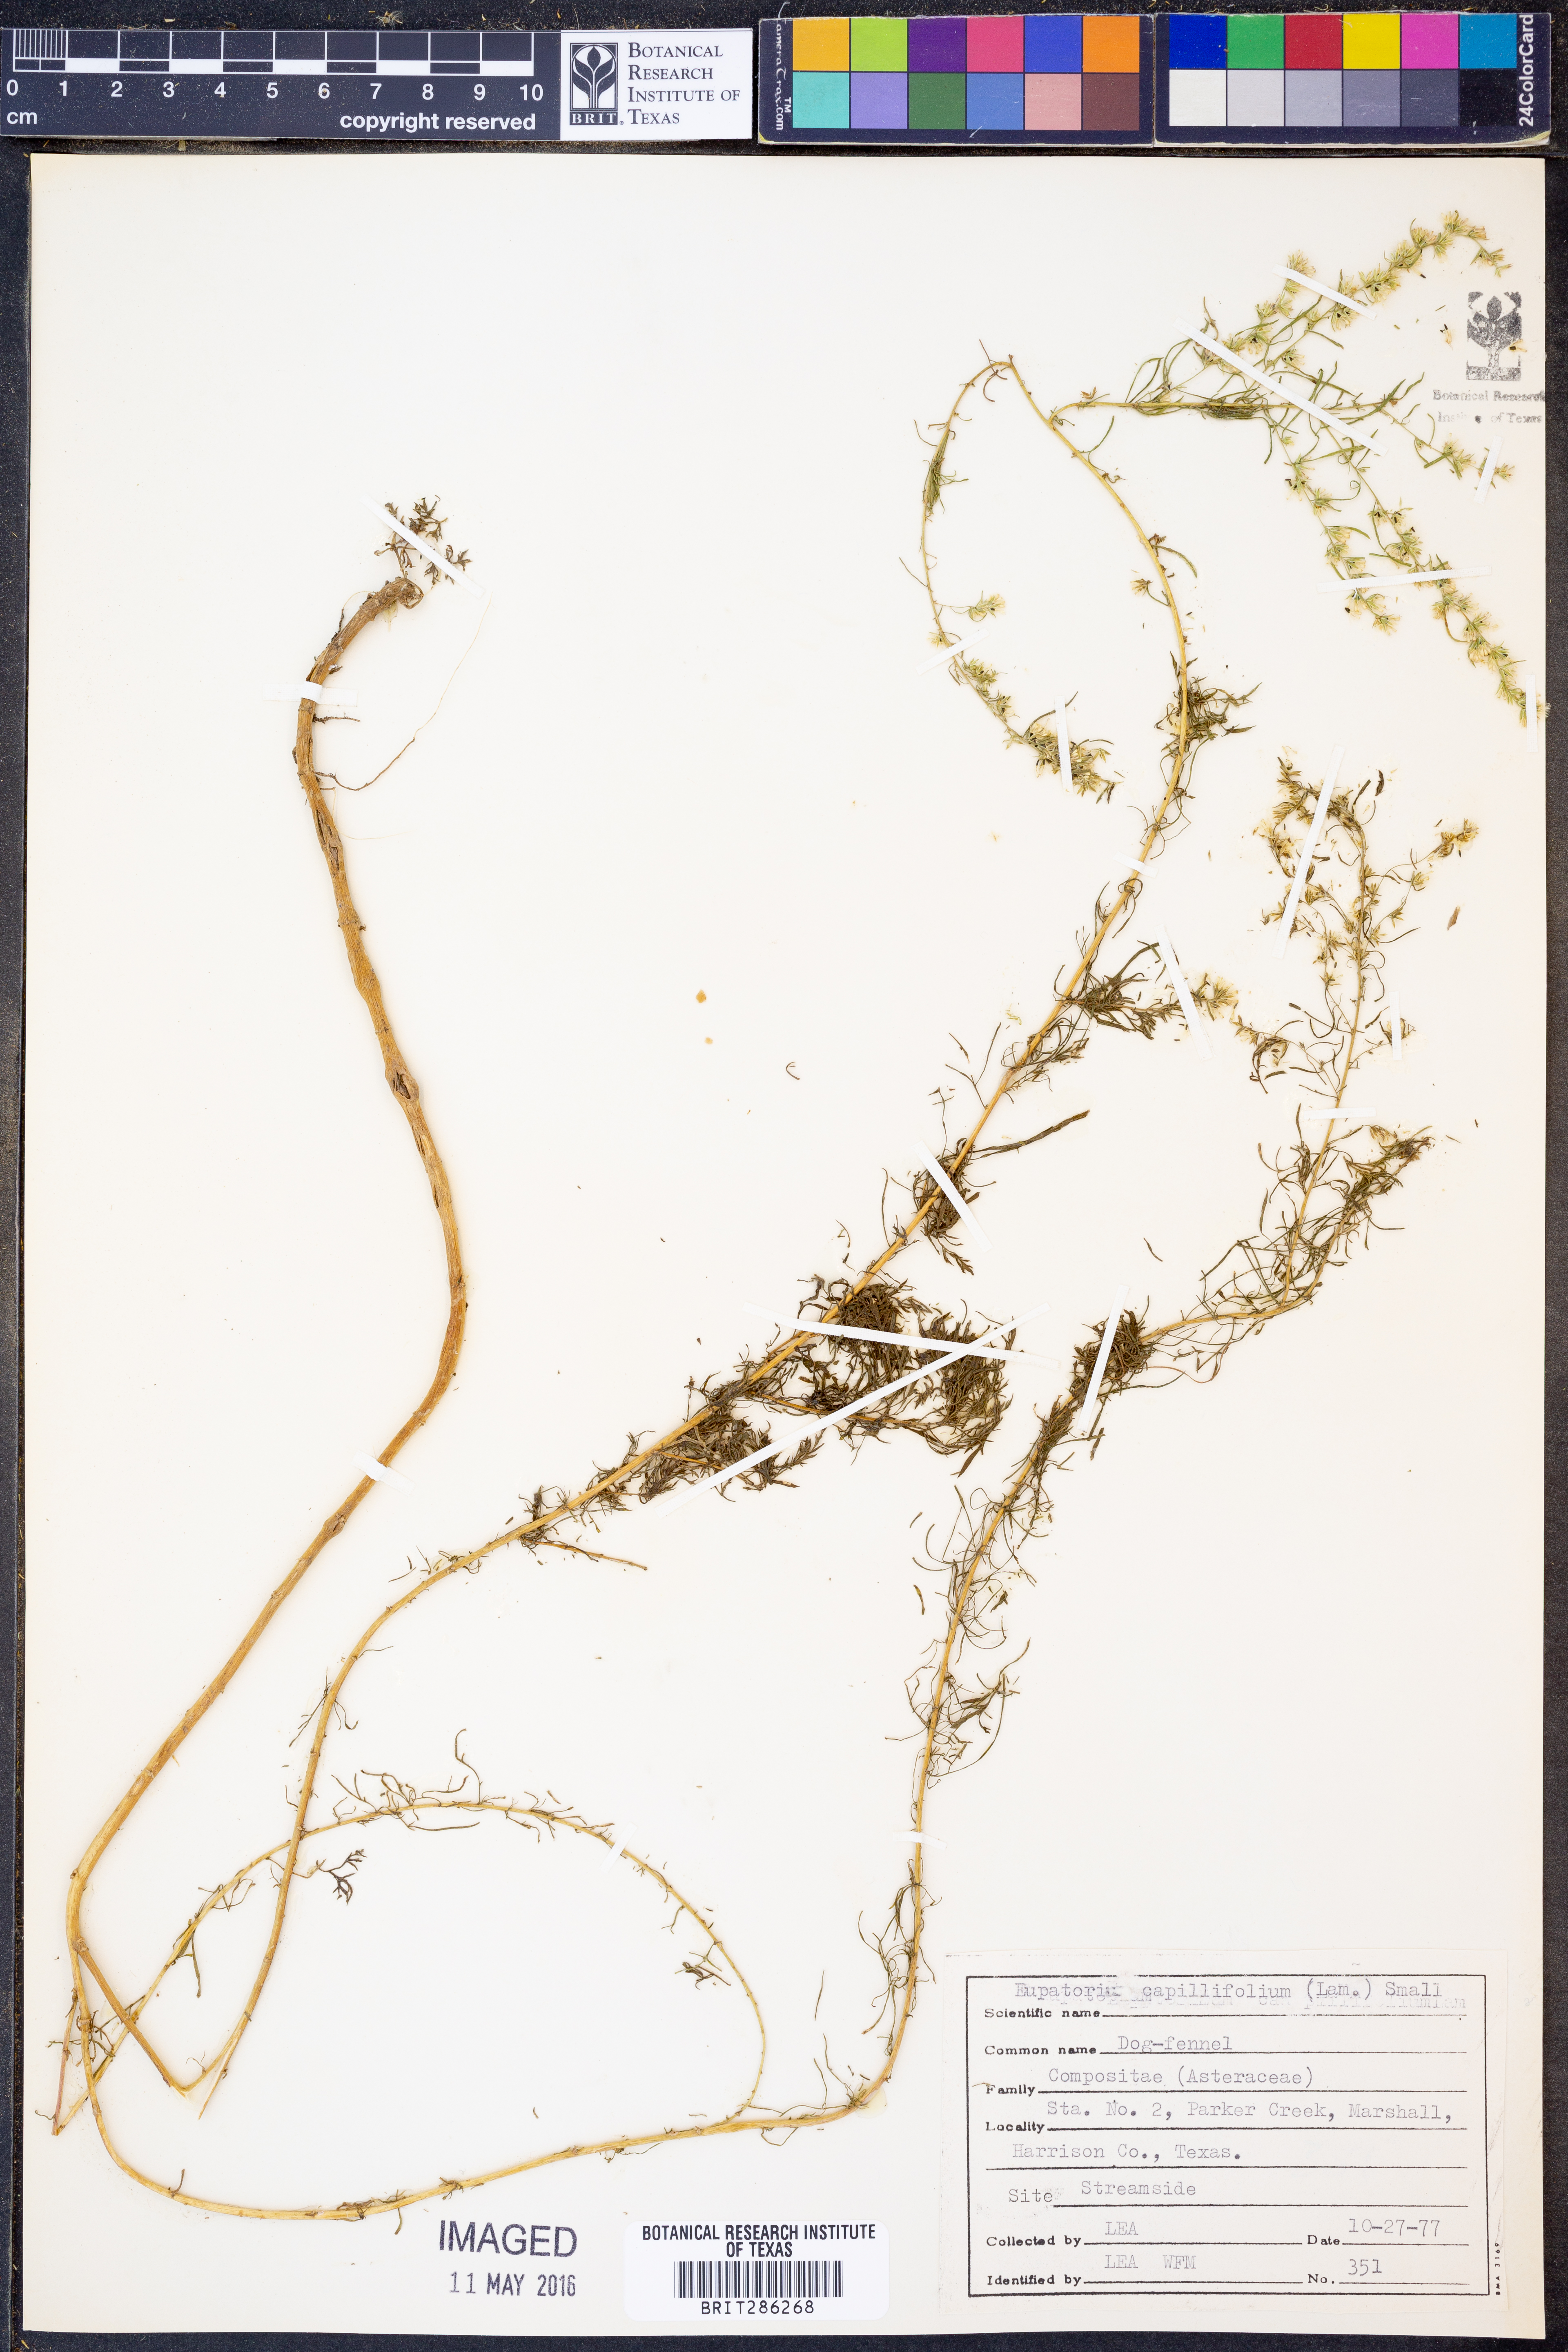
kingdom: Plantae
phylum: Tracheophyta
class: Magnoliopsida
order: Asterales
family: Asteraceae
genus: Eupatorium
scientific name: Eupatorium capillifolium
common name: Dog-fennel
